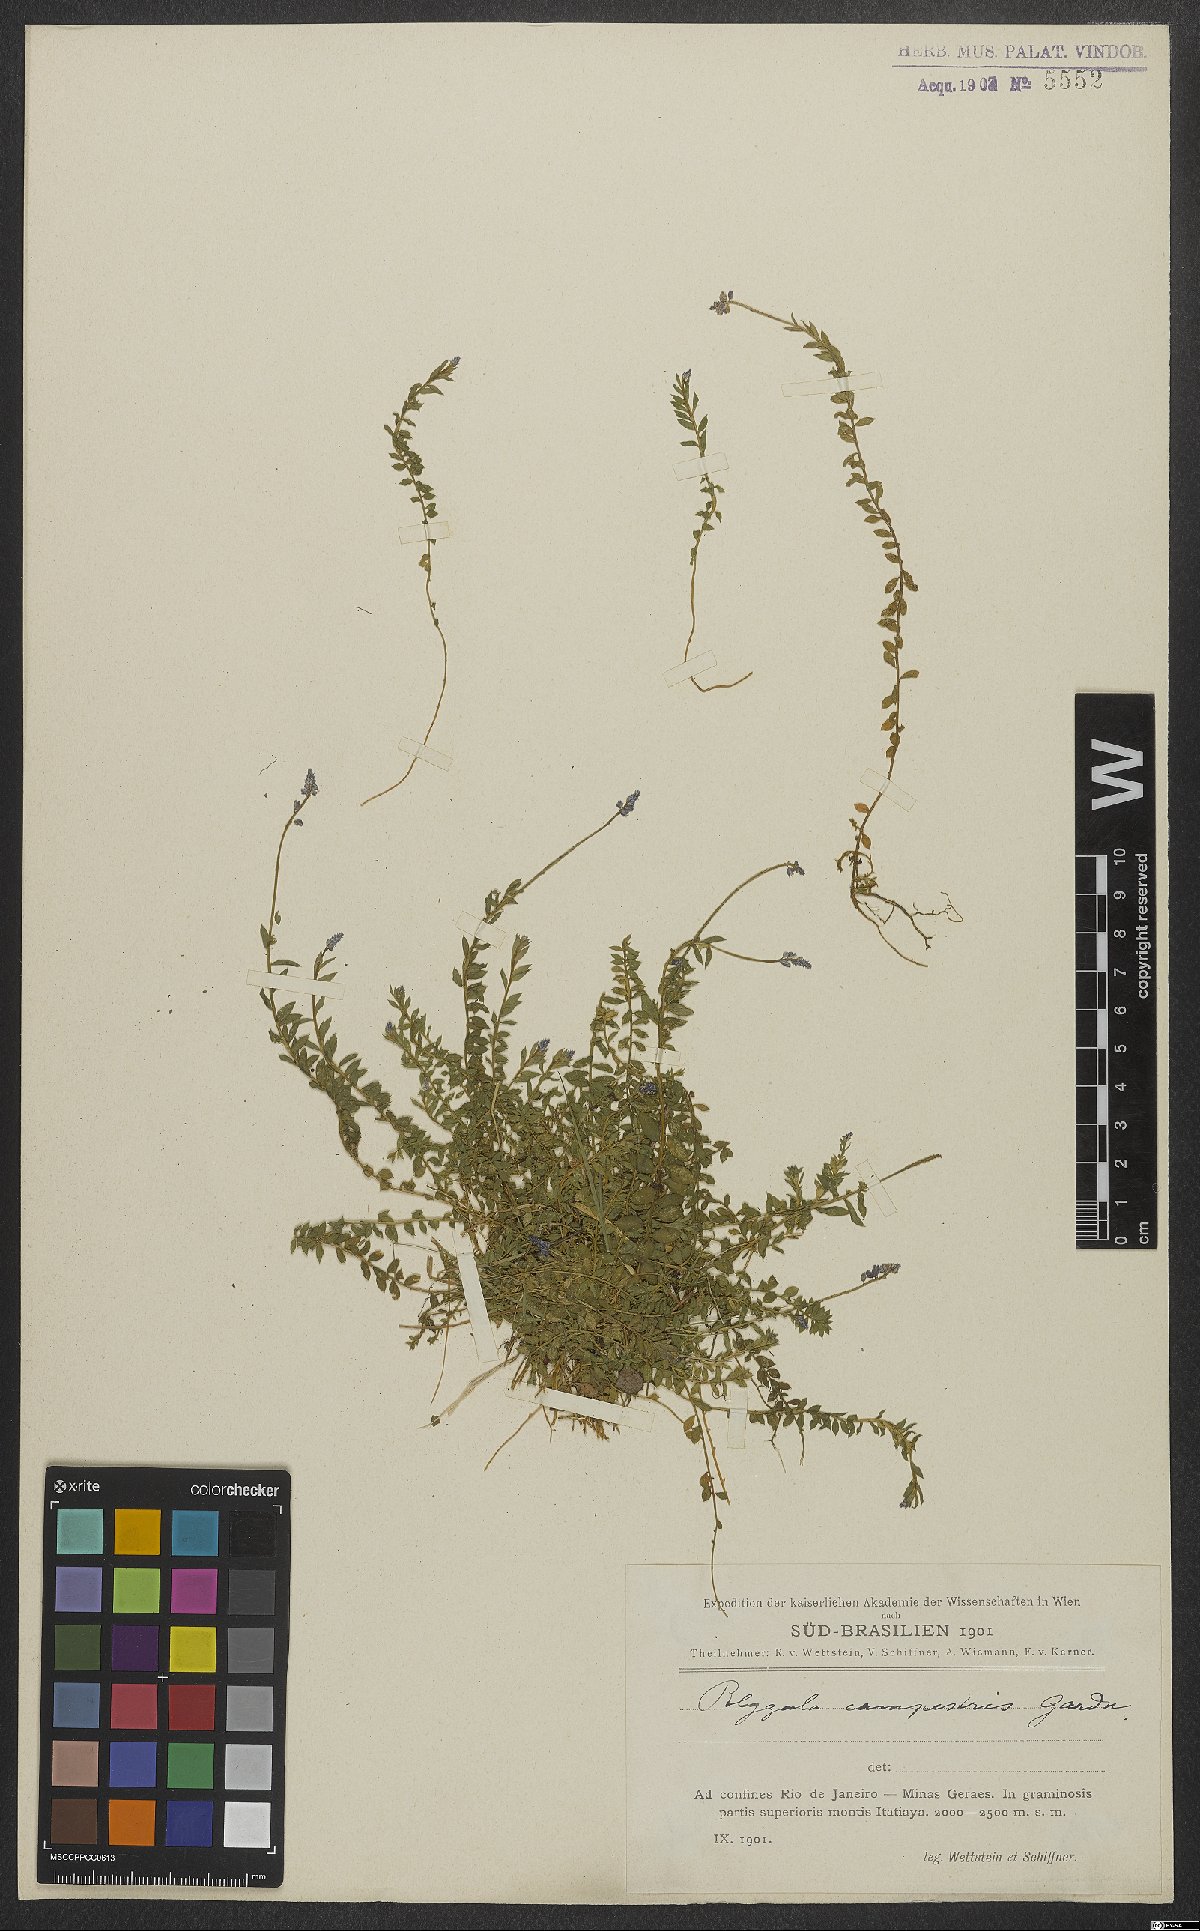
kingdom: Plantae
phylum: Tracheophyta
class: Magnoliopsida
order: Fabales
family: Polygalaceae
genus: Polygala
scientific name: Polygala campestris
